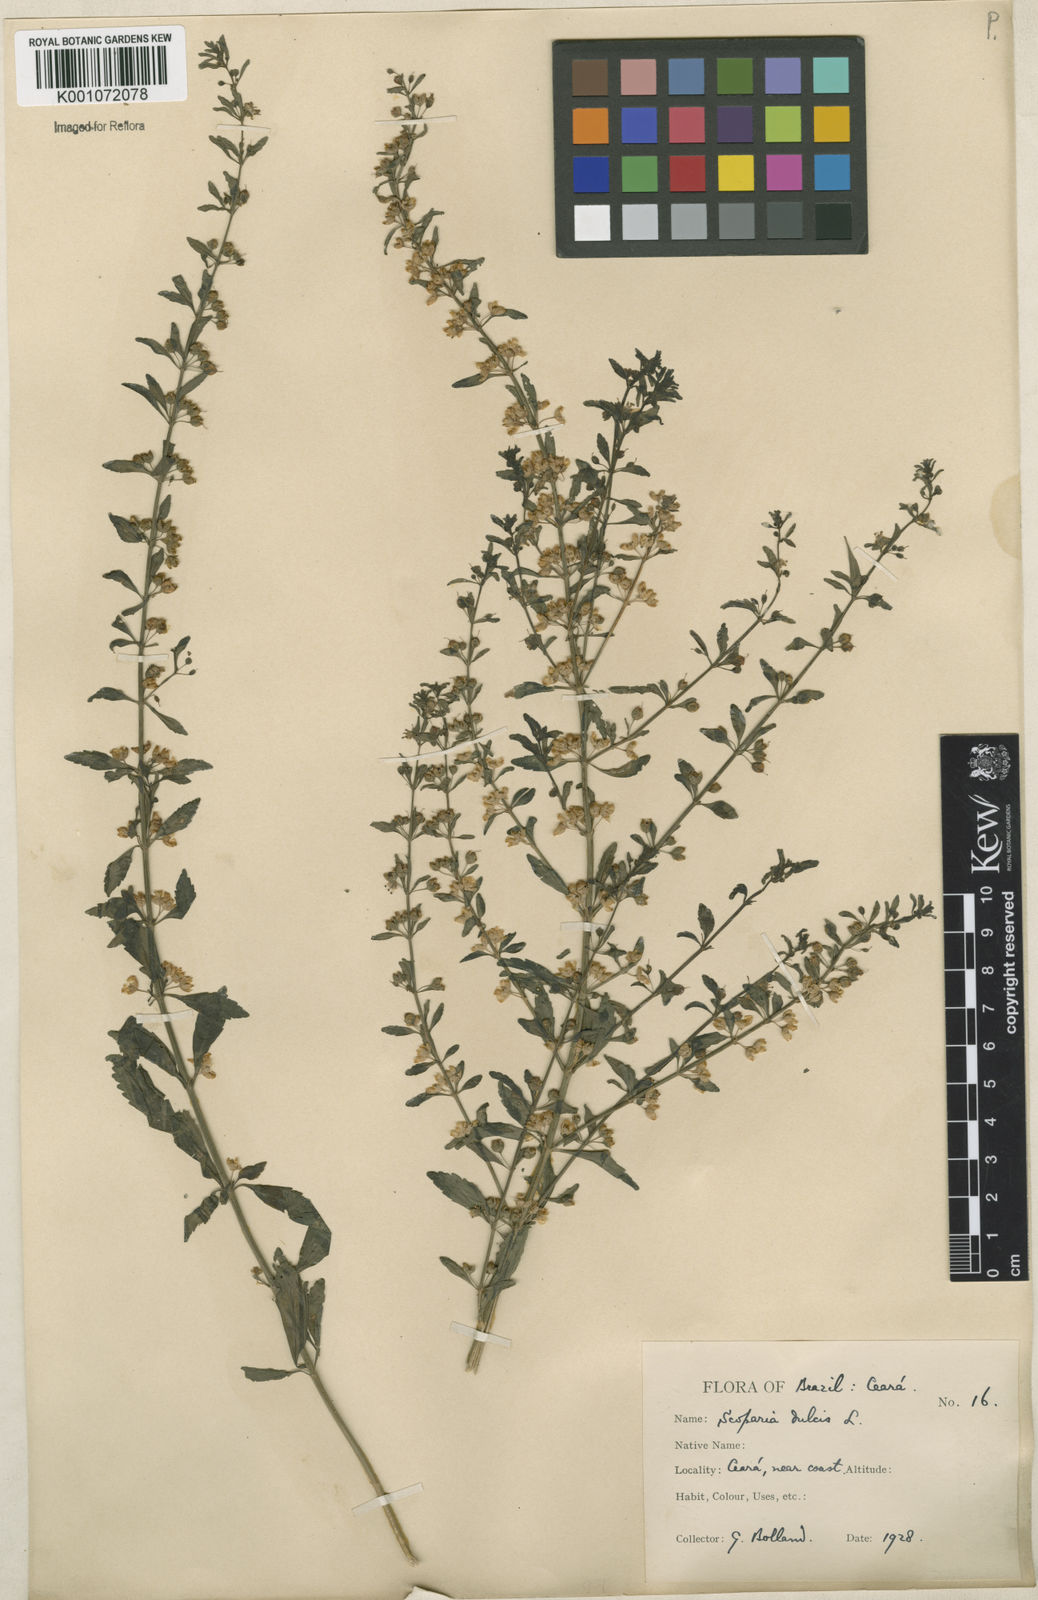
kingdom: Plantae
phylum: Tracheophyta
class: Magnoliopsida
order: Lamiales
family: Plantaginaceae
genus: Scoparia
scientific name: Scoparia dulcis
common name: Scoparia-weed
